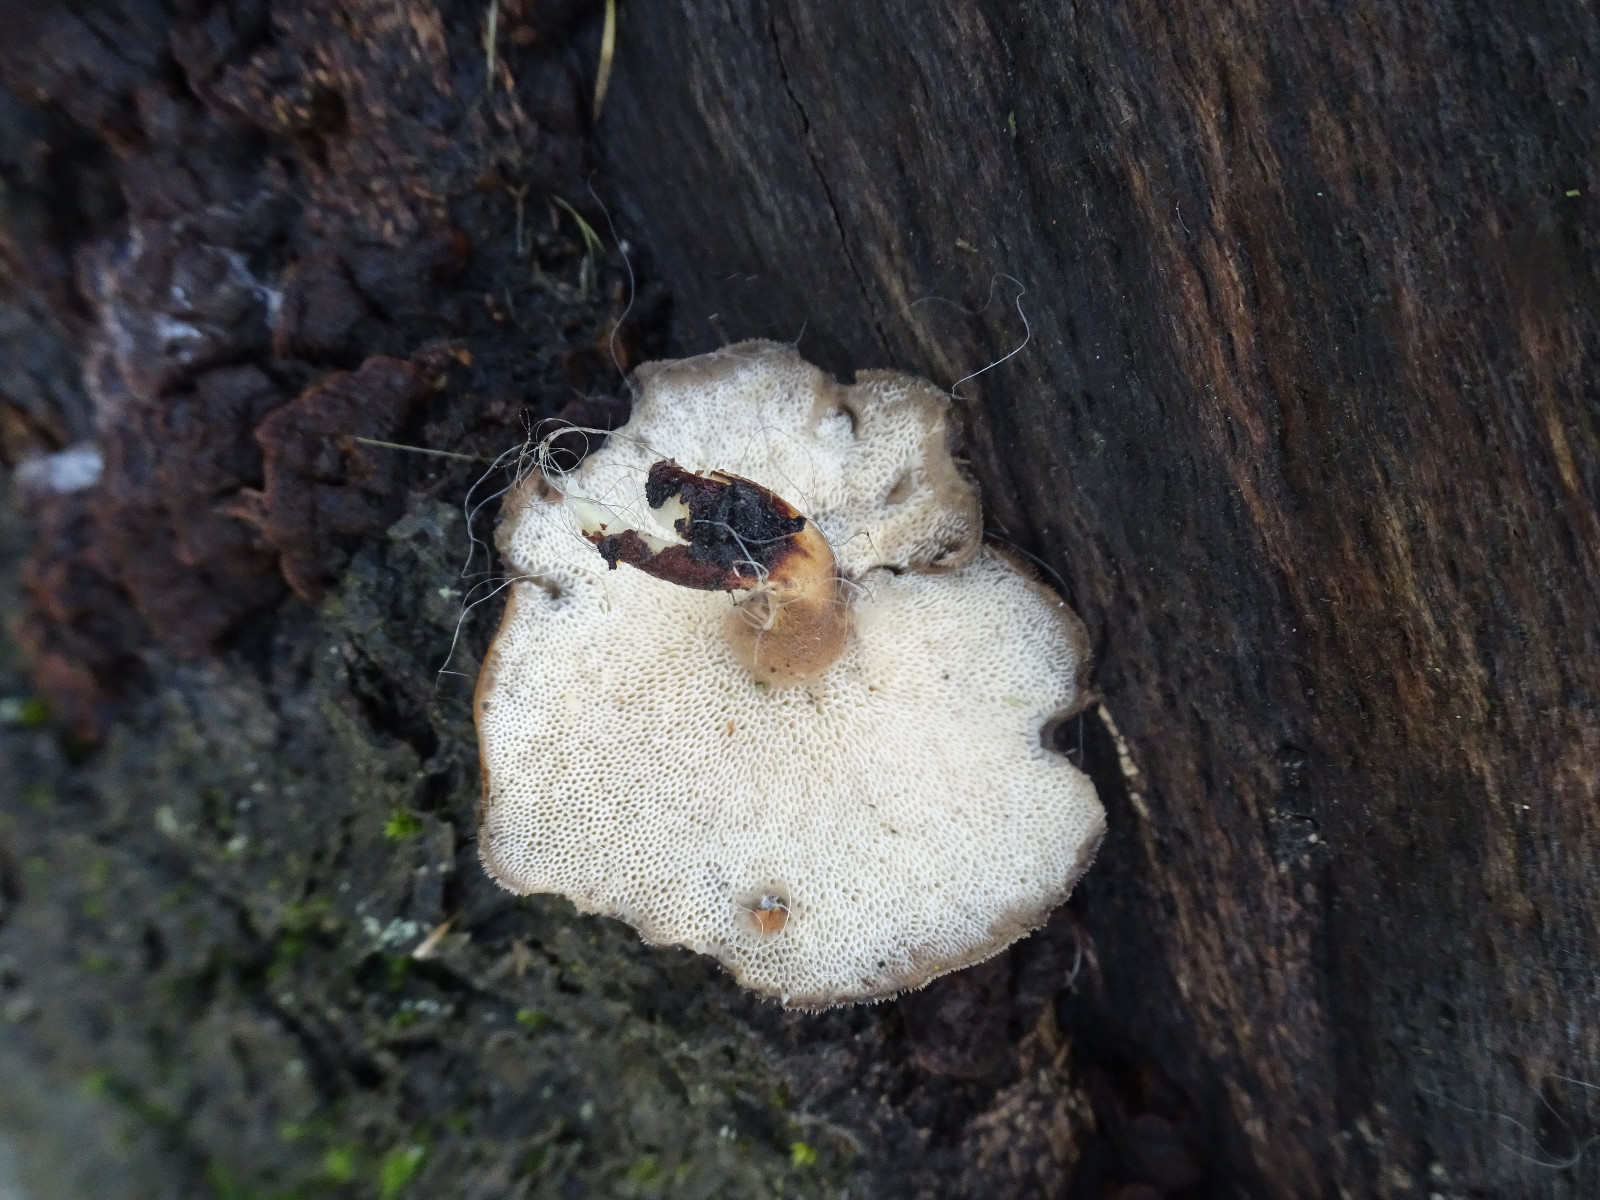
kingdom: Fungi
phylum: Basidiomycota
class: Agaricomycetes
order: Polyporales
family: Polyporaceae
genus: Lentinus
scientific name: Lentinus brumalis
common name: vinter-stilkporesvamp
